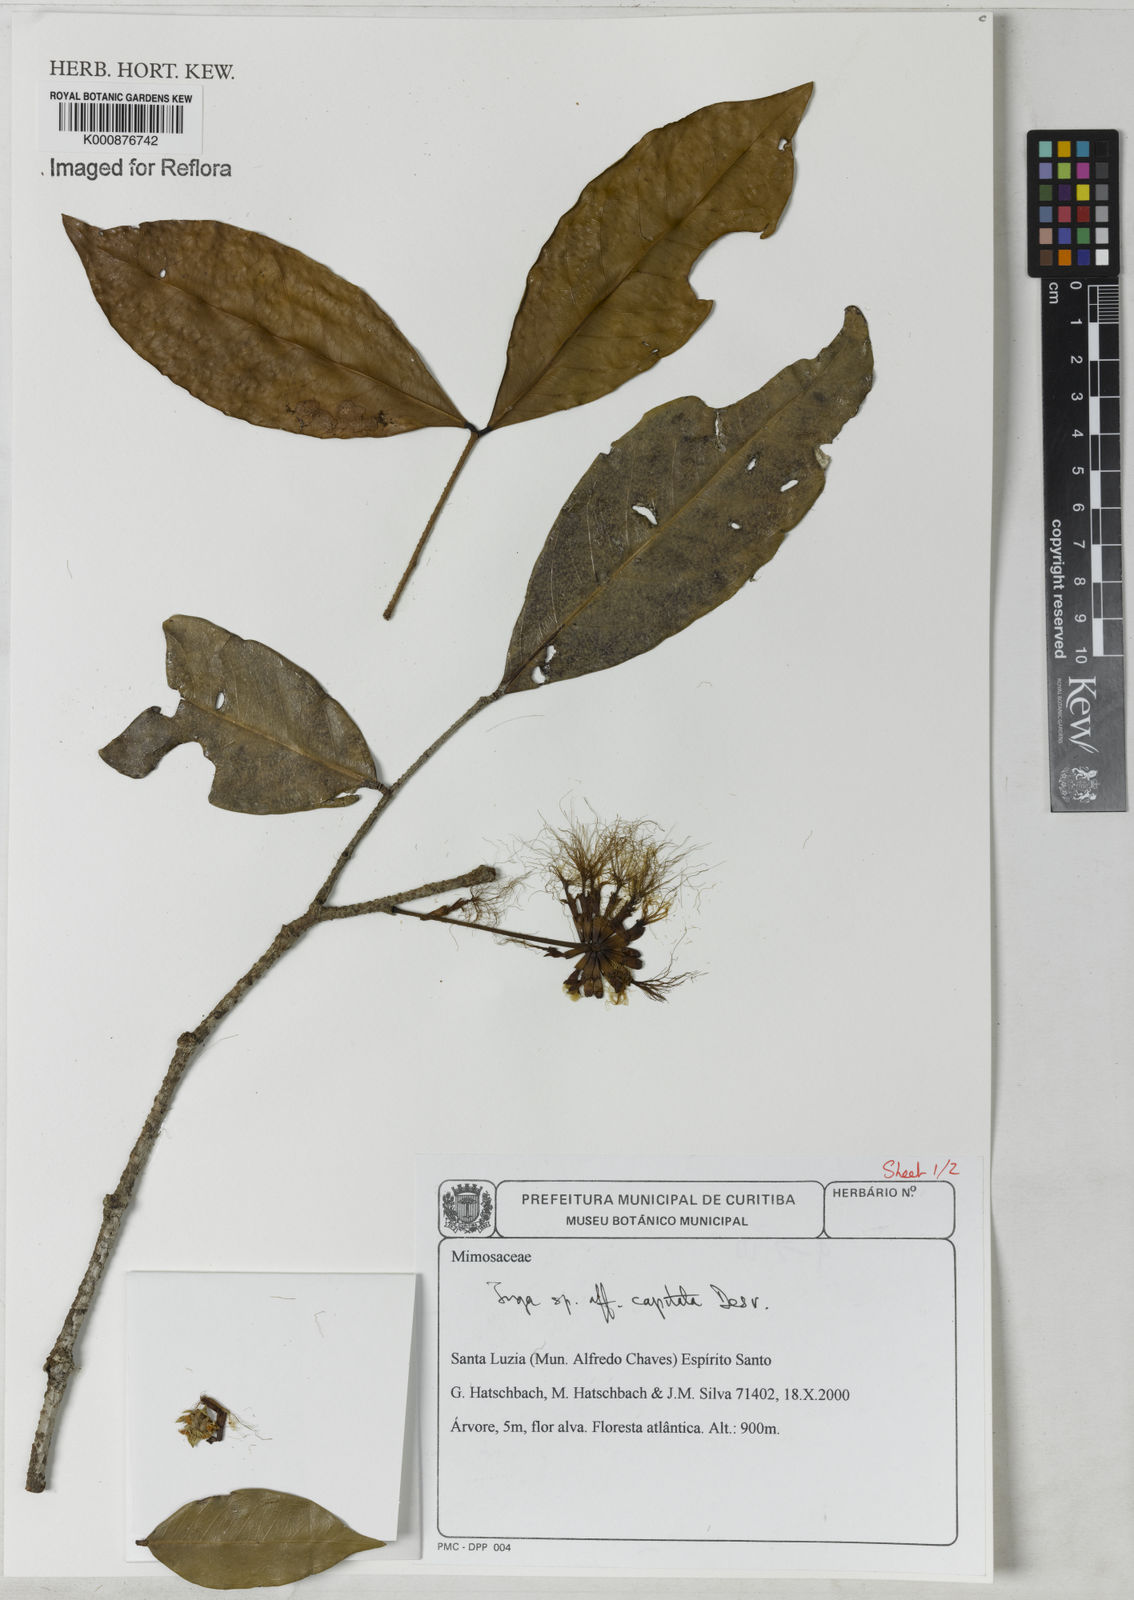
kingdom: Plantae
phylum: Tracheophyta
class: Magnoliopsida
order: Fabales
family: Fabaceae
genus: Inga
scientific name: Inga capitata
